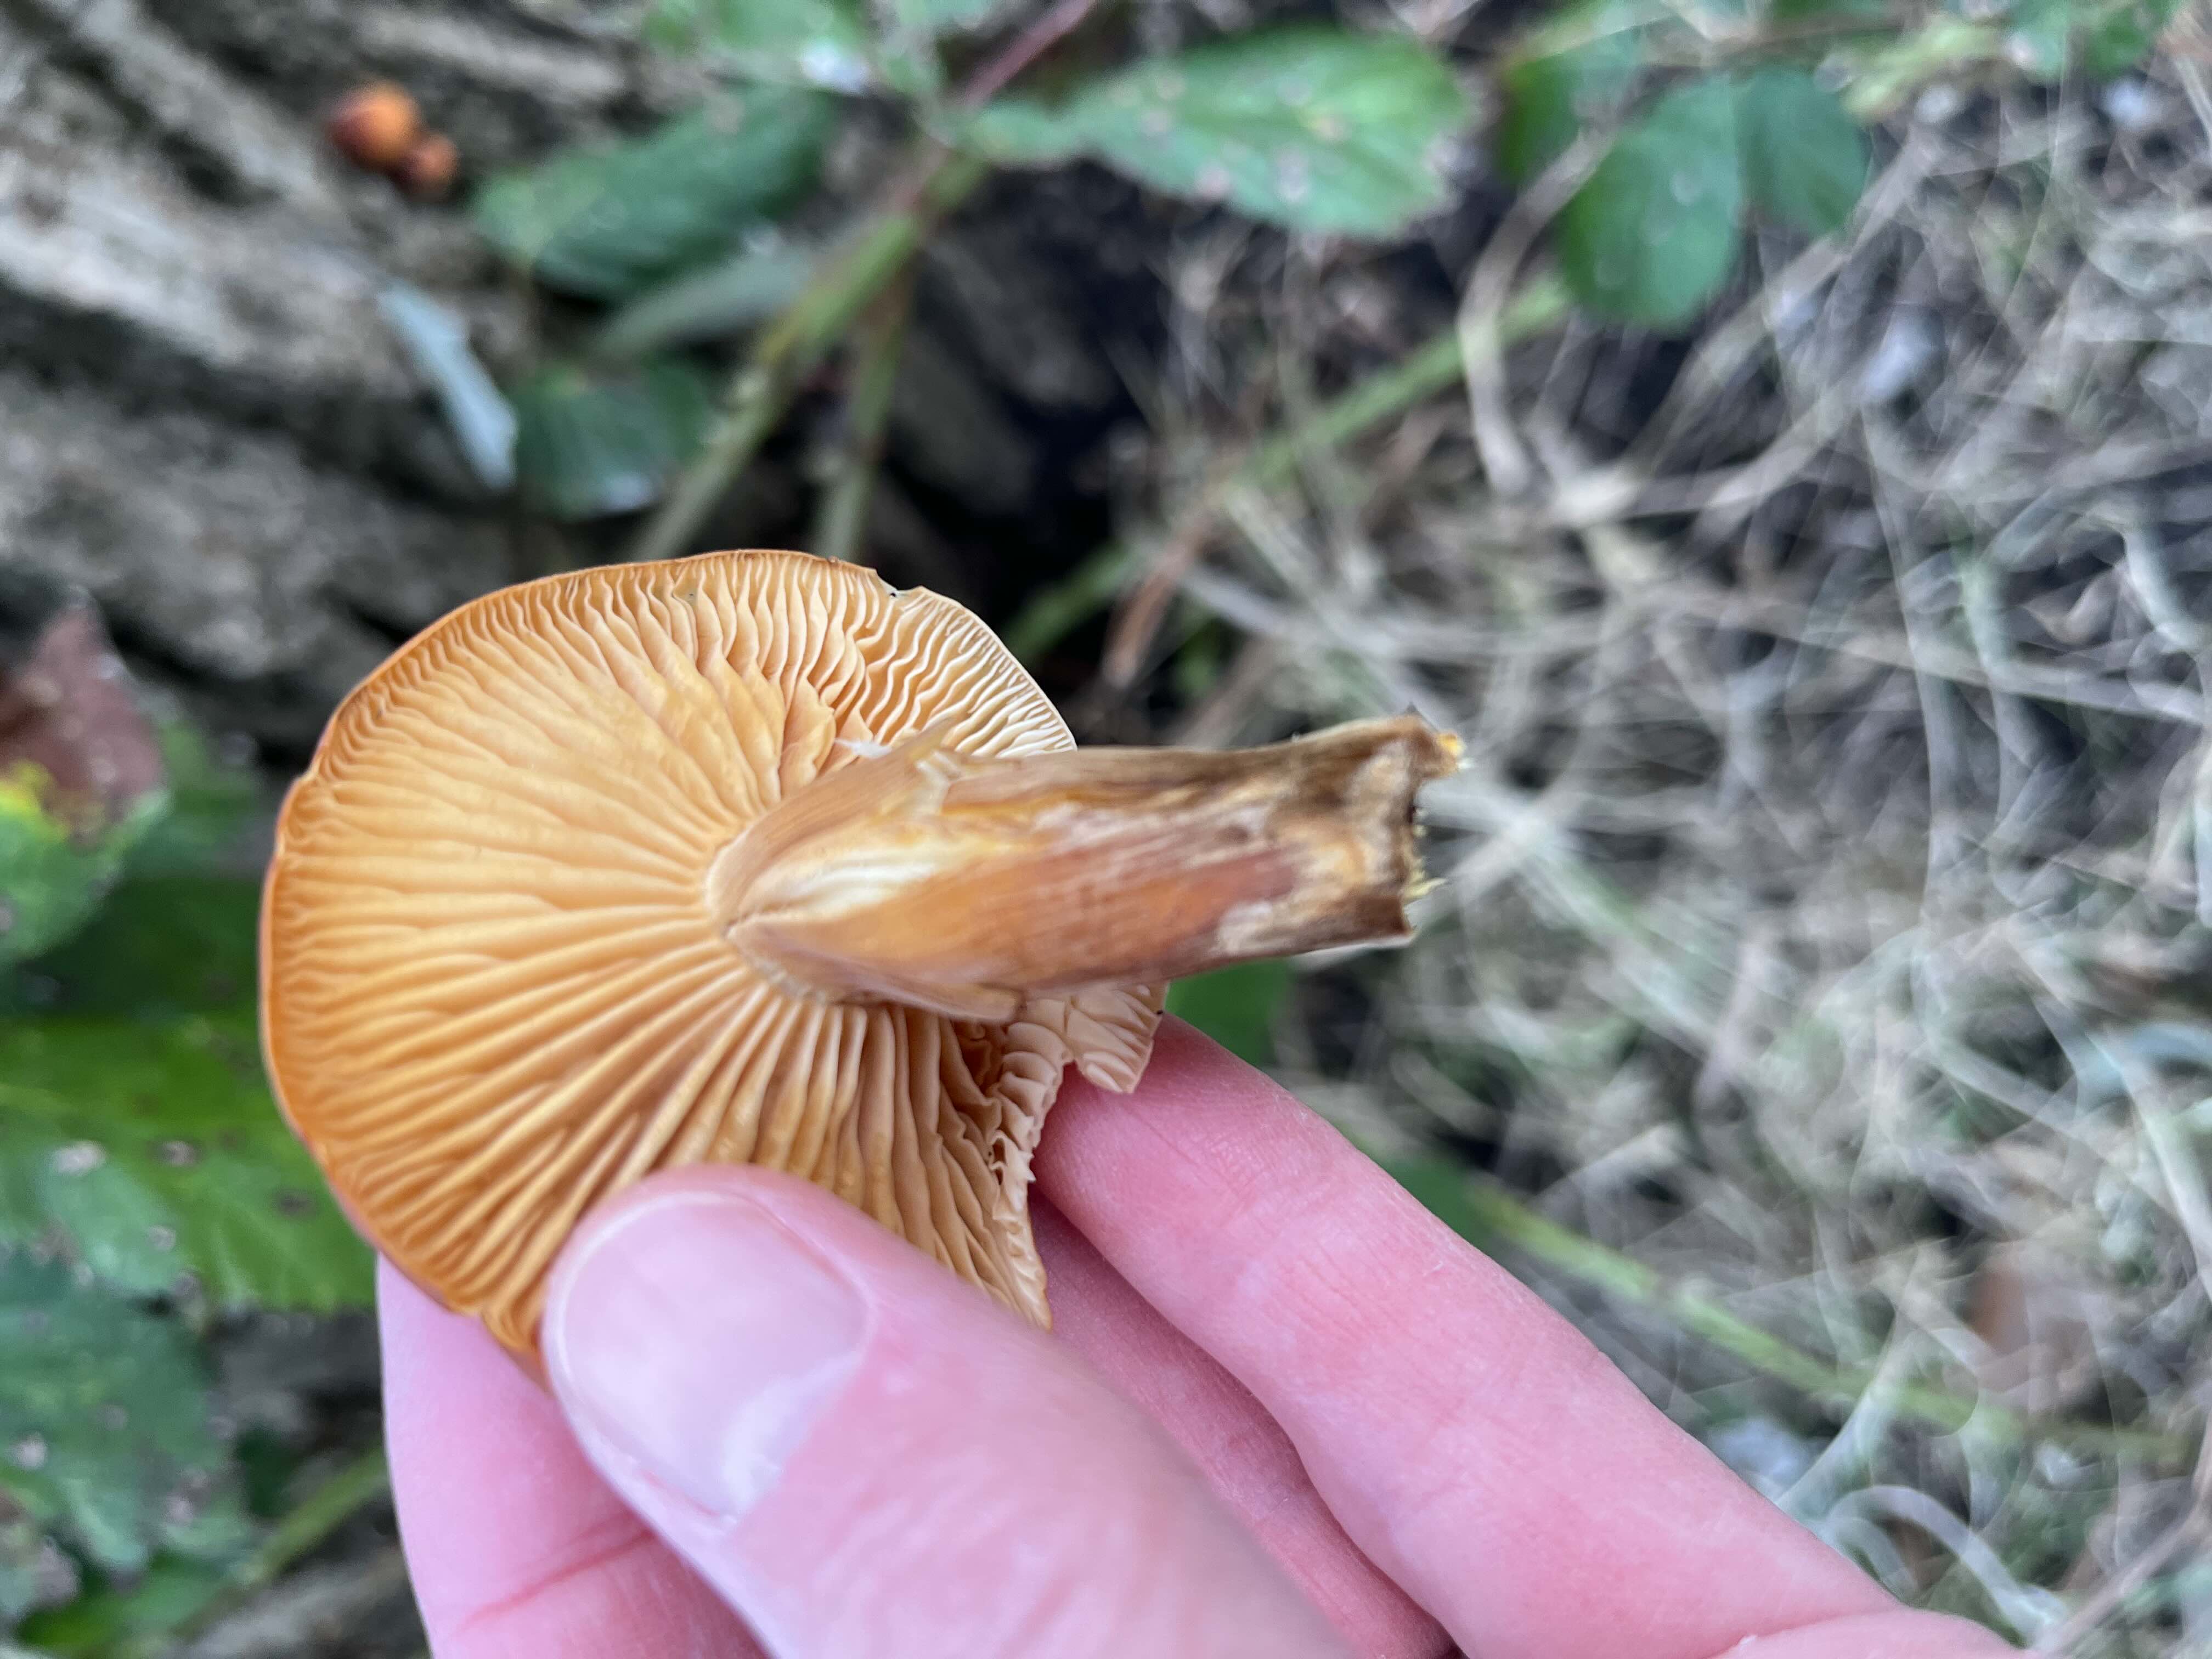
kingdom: Fungi
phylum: Basidiomycota
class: Agaricomycetes
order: Agaricales
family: Physalacriaceae
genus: Flammulina
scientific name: Flammulina velutipes
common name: gul fløjlsfod
